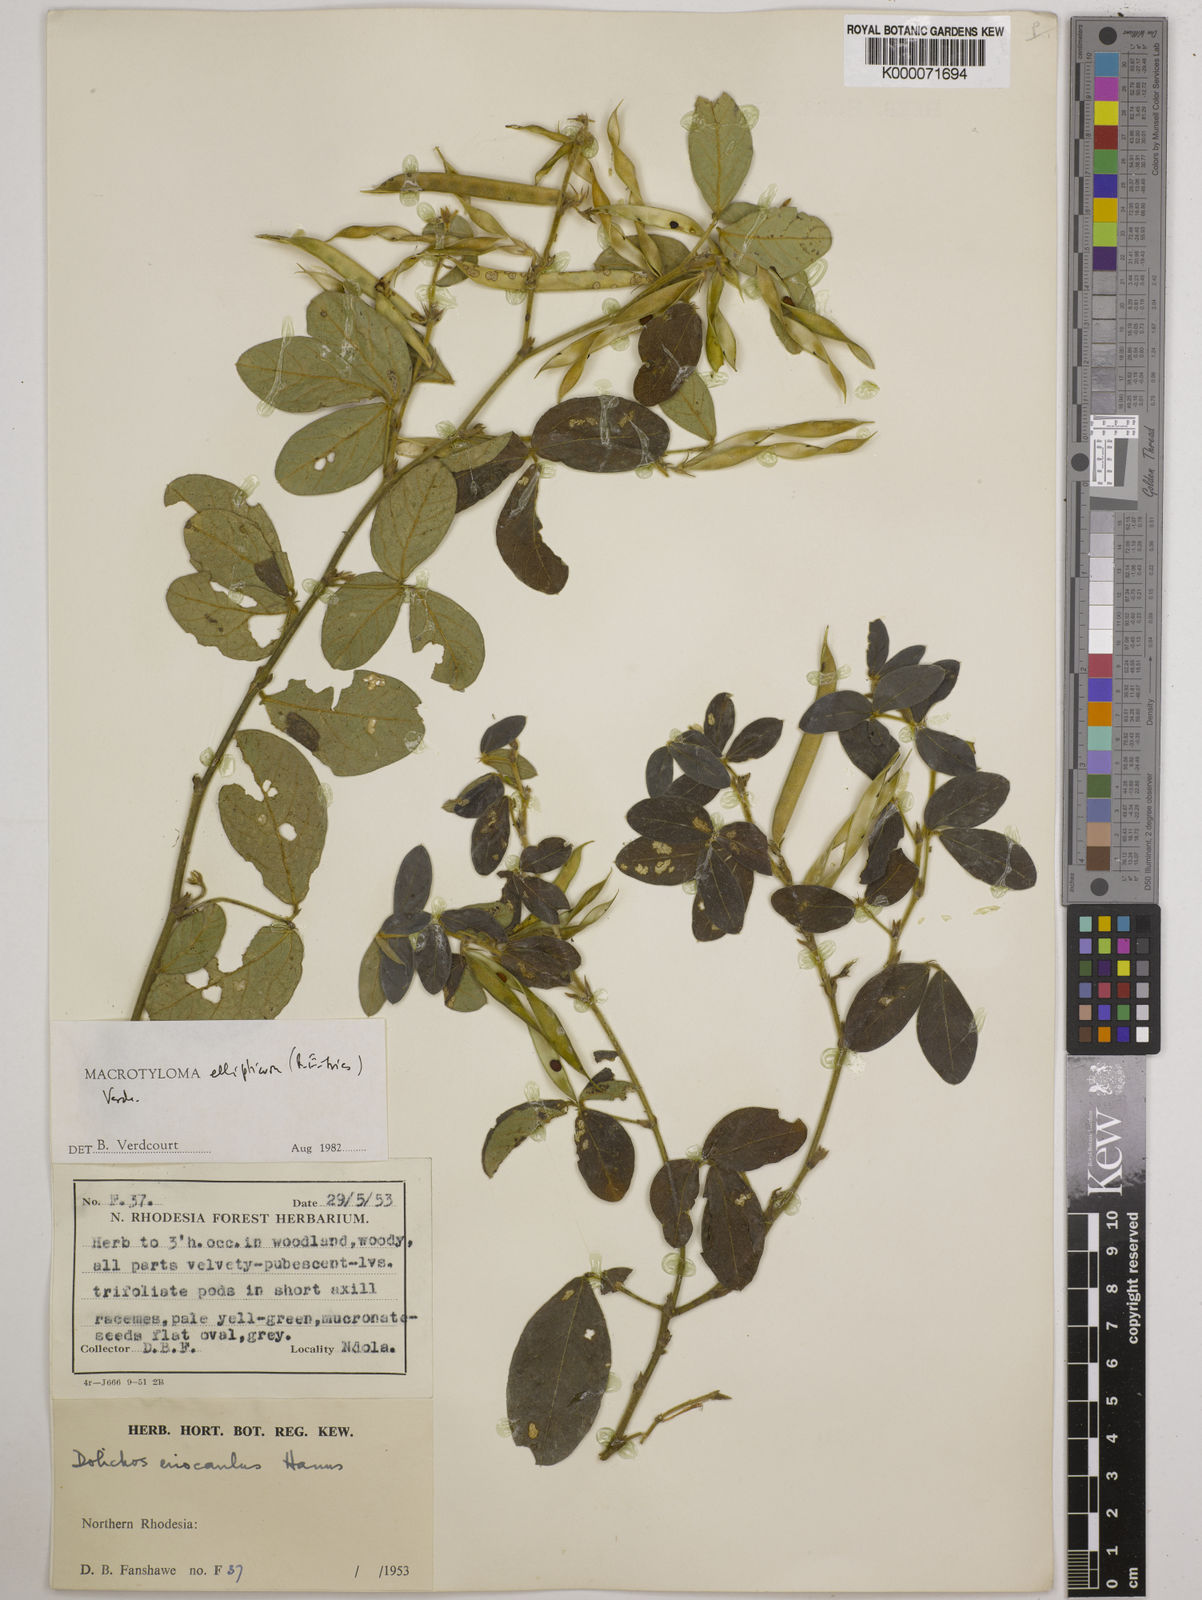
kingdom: Plantae
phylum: Tracheophyta
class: Magnoliopsida
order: Fabales
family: Fabaceae
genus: Macrotyloma
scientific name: Macrotyloma ellipticum
